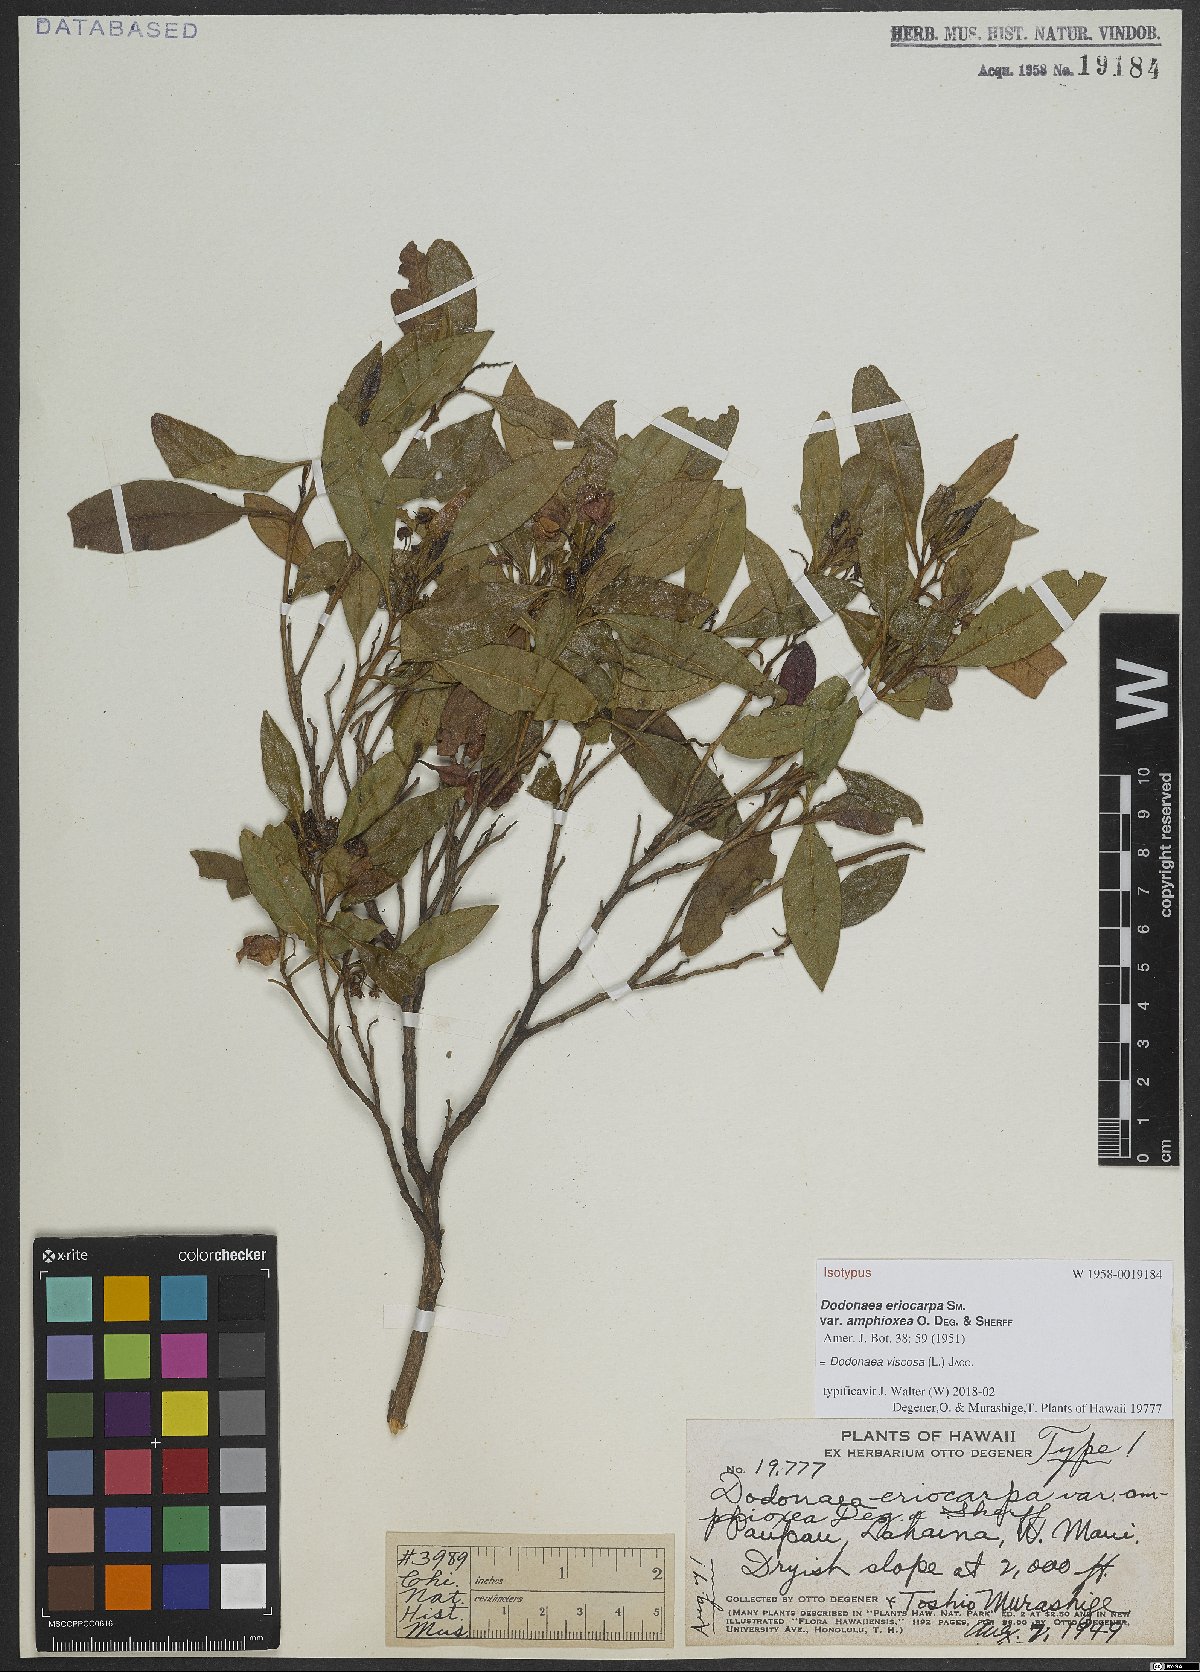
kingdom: Plantae
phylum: Tracheophyta
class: Magnoliopsida
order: Sapindales
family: Sapindaceae
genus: Dodonaea
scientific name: Dodonaea viscosa
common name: Hopbush
